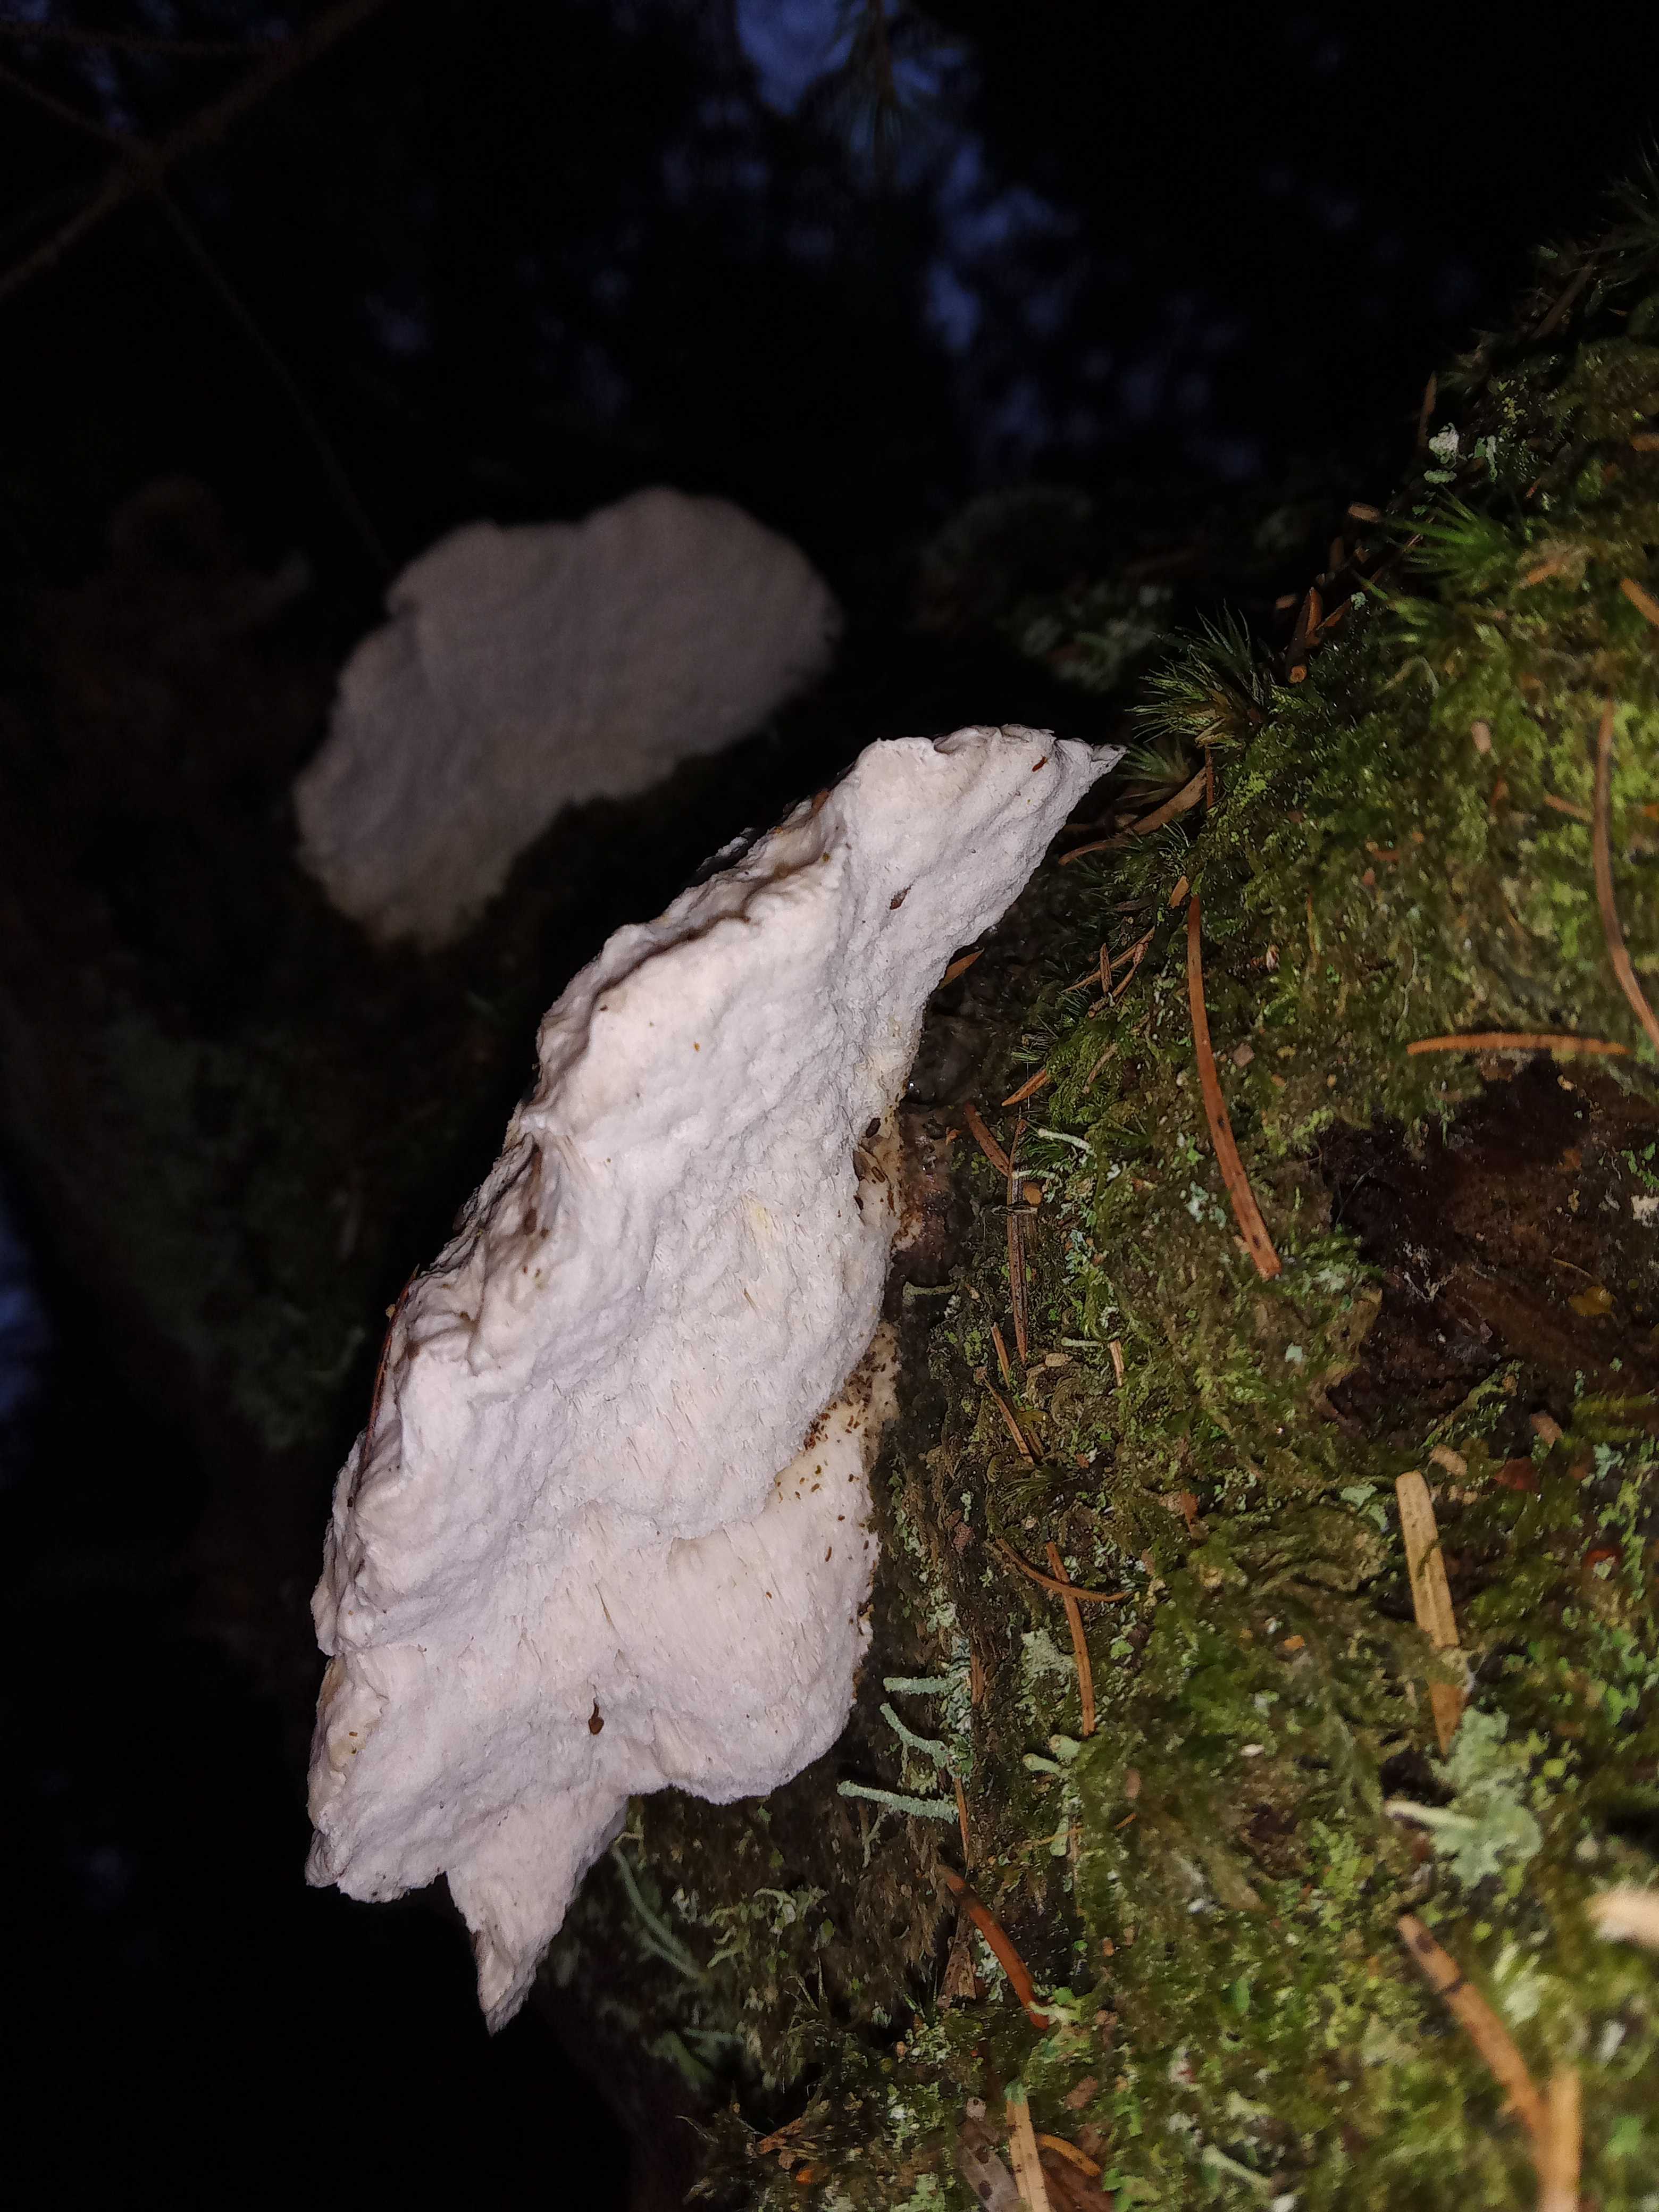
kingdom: Fungi
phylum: Basidiomycota
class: Agaricomycetes
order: Polyporales
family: Incrustoporiaceae
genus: Tyromyces
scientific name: Tyromyces lacteus
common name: mælkehvid kødporesvamp
